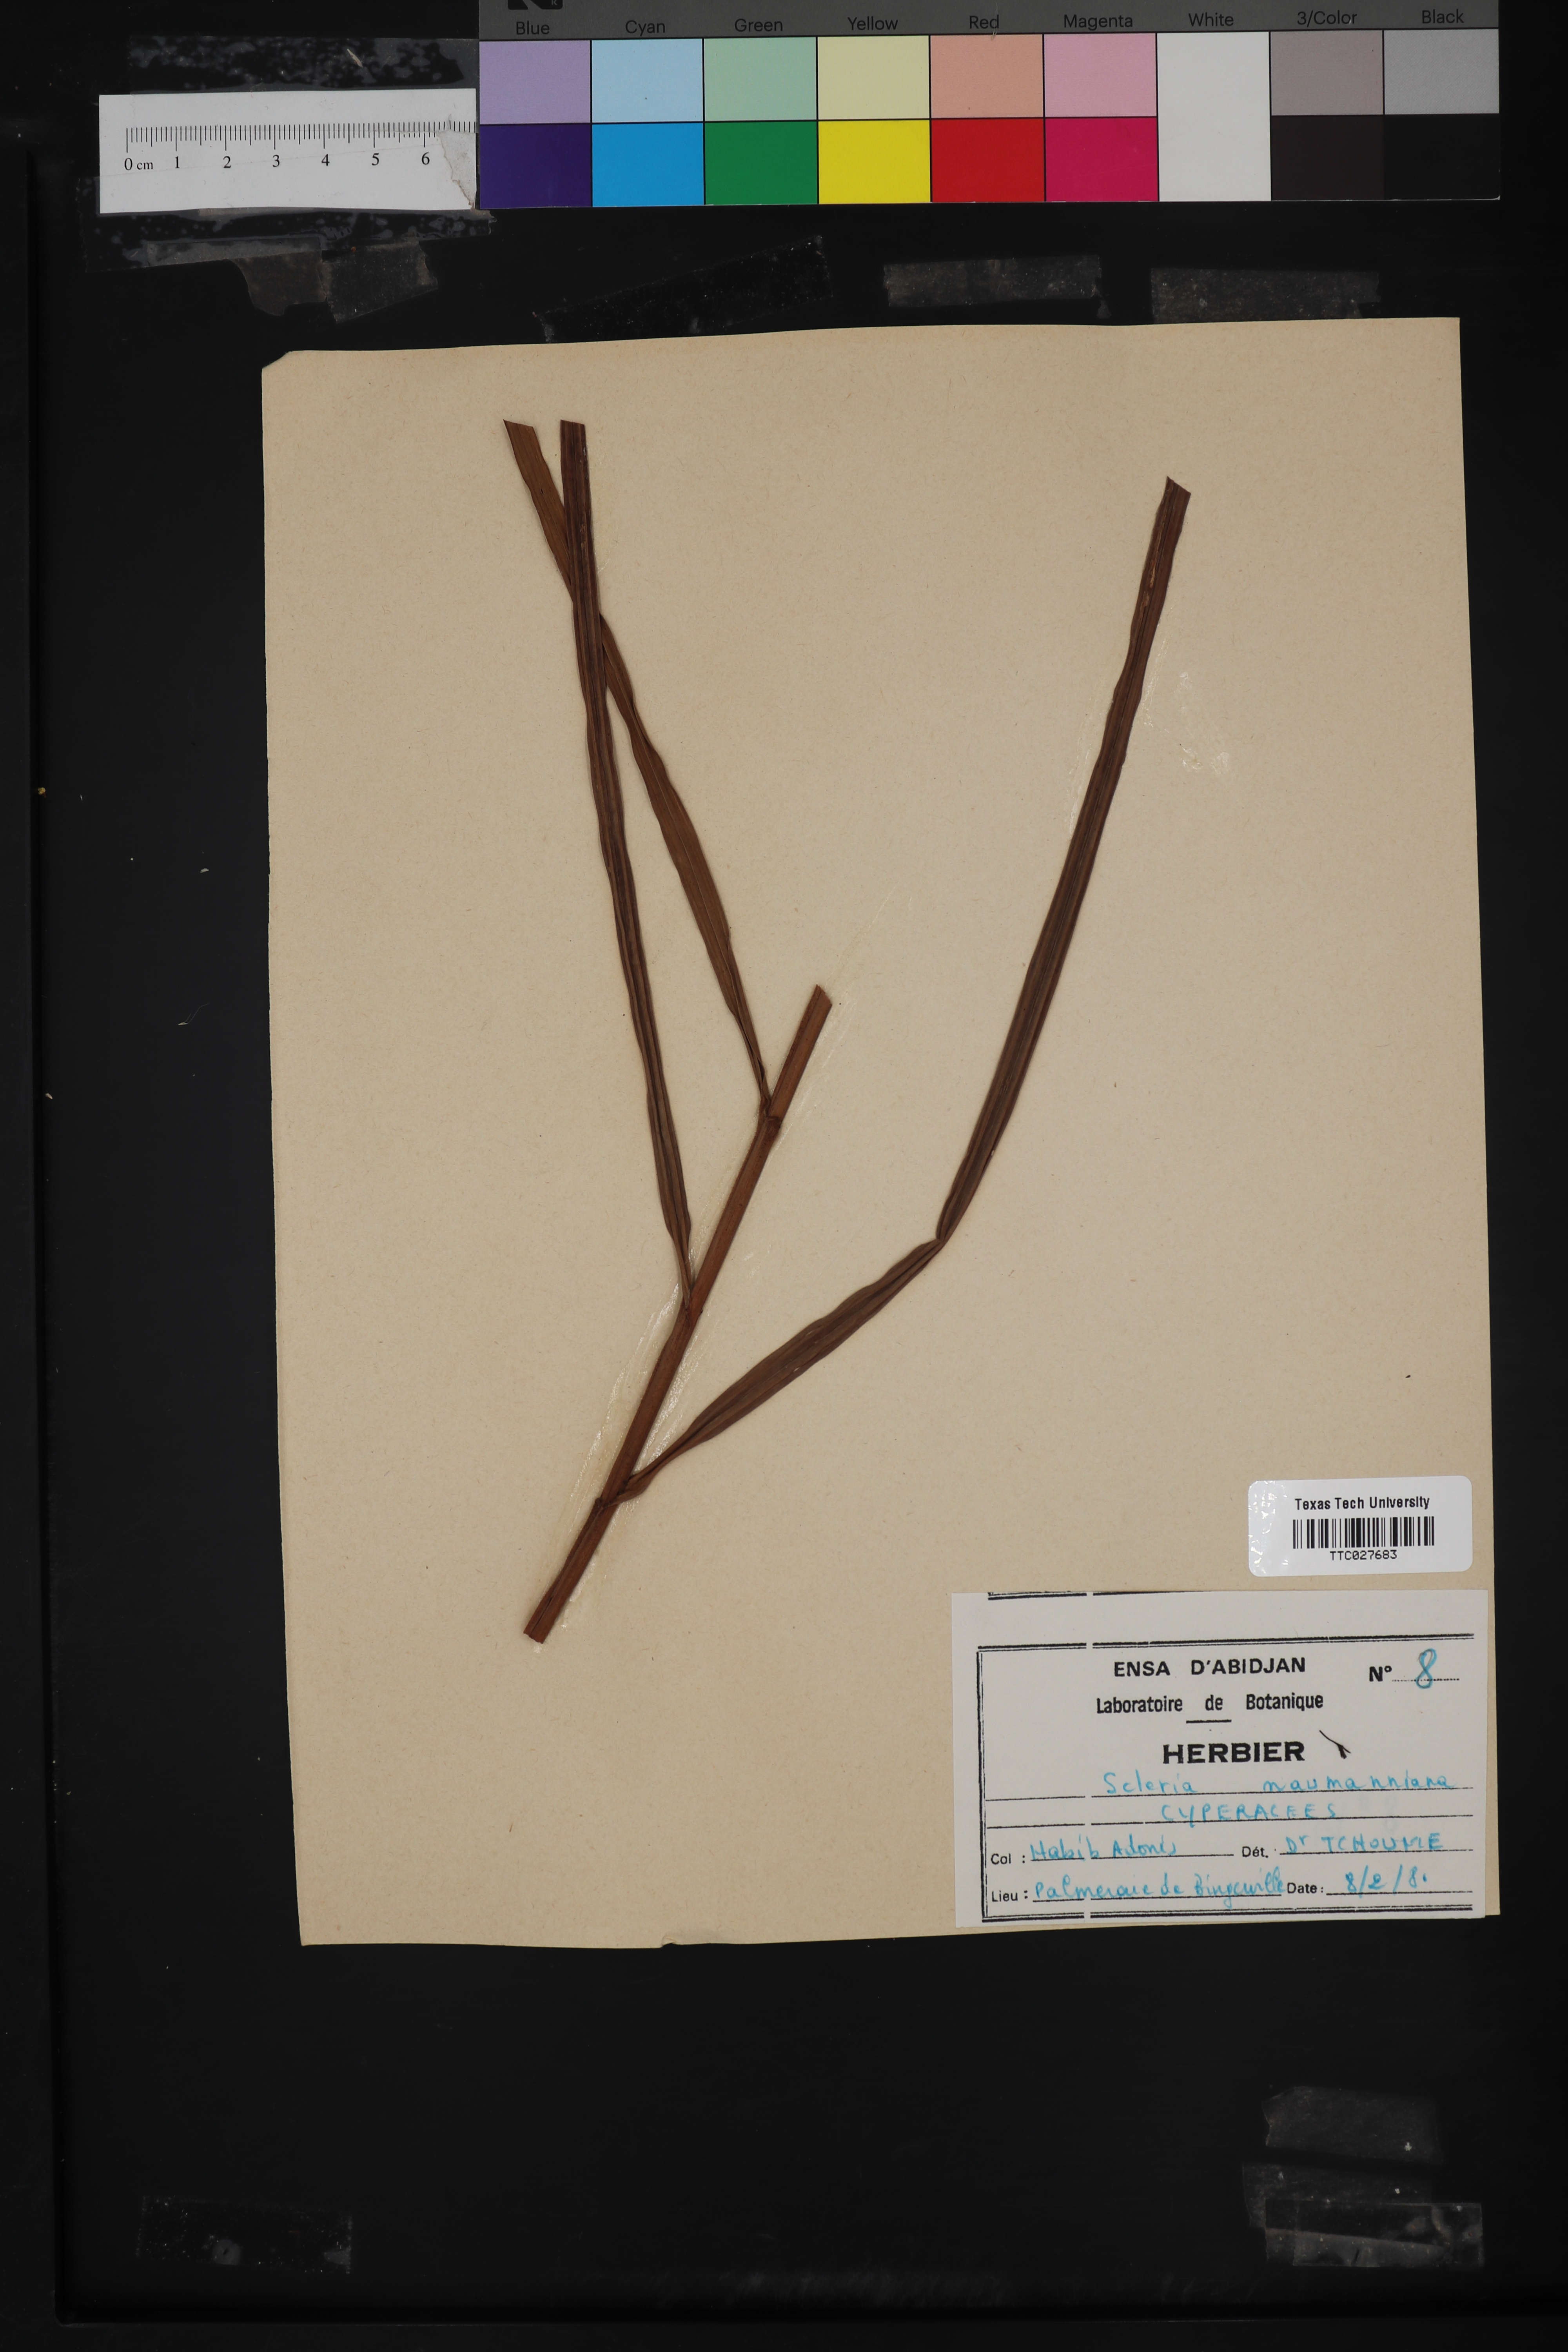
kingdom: Plantae
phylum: Tracheophyta
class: Liliopsida
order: Poales
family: Cyperaceae
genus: Scleria
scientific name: Scleria naumanniana
